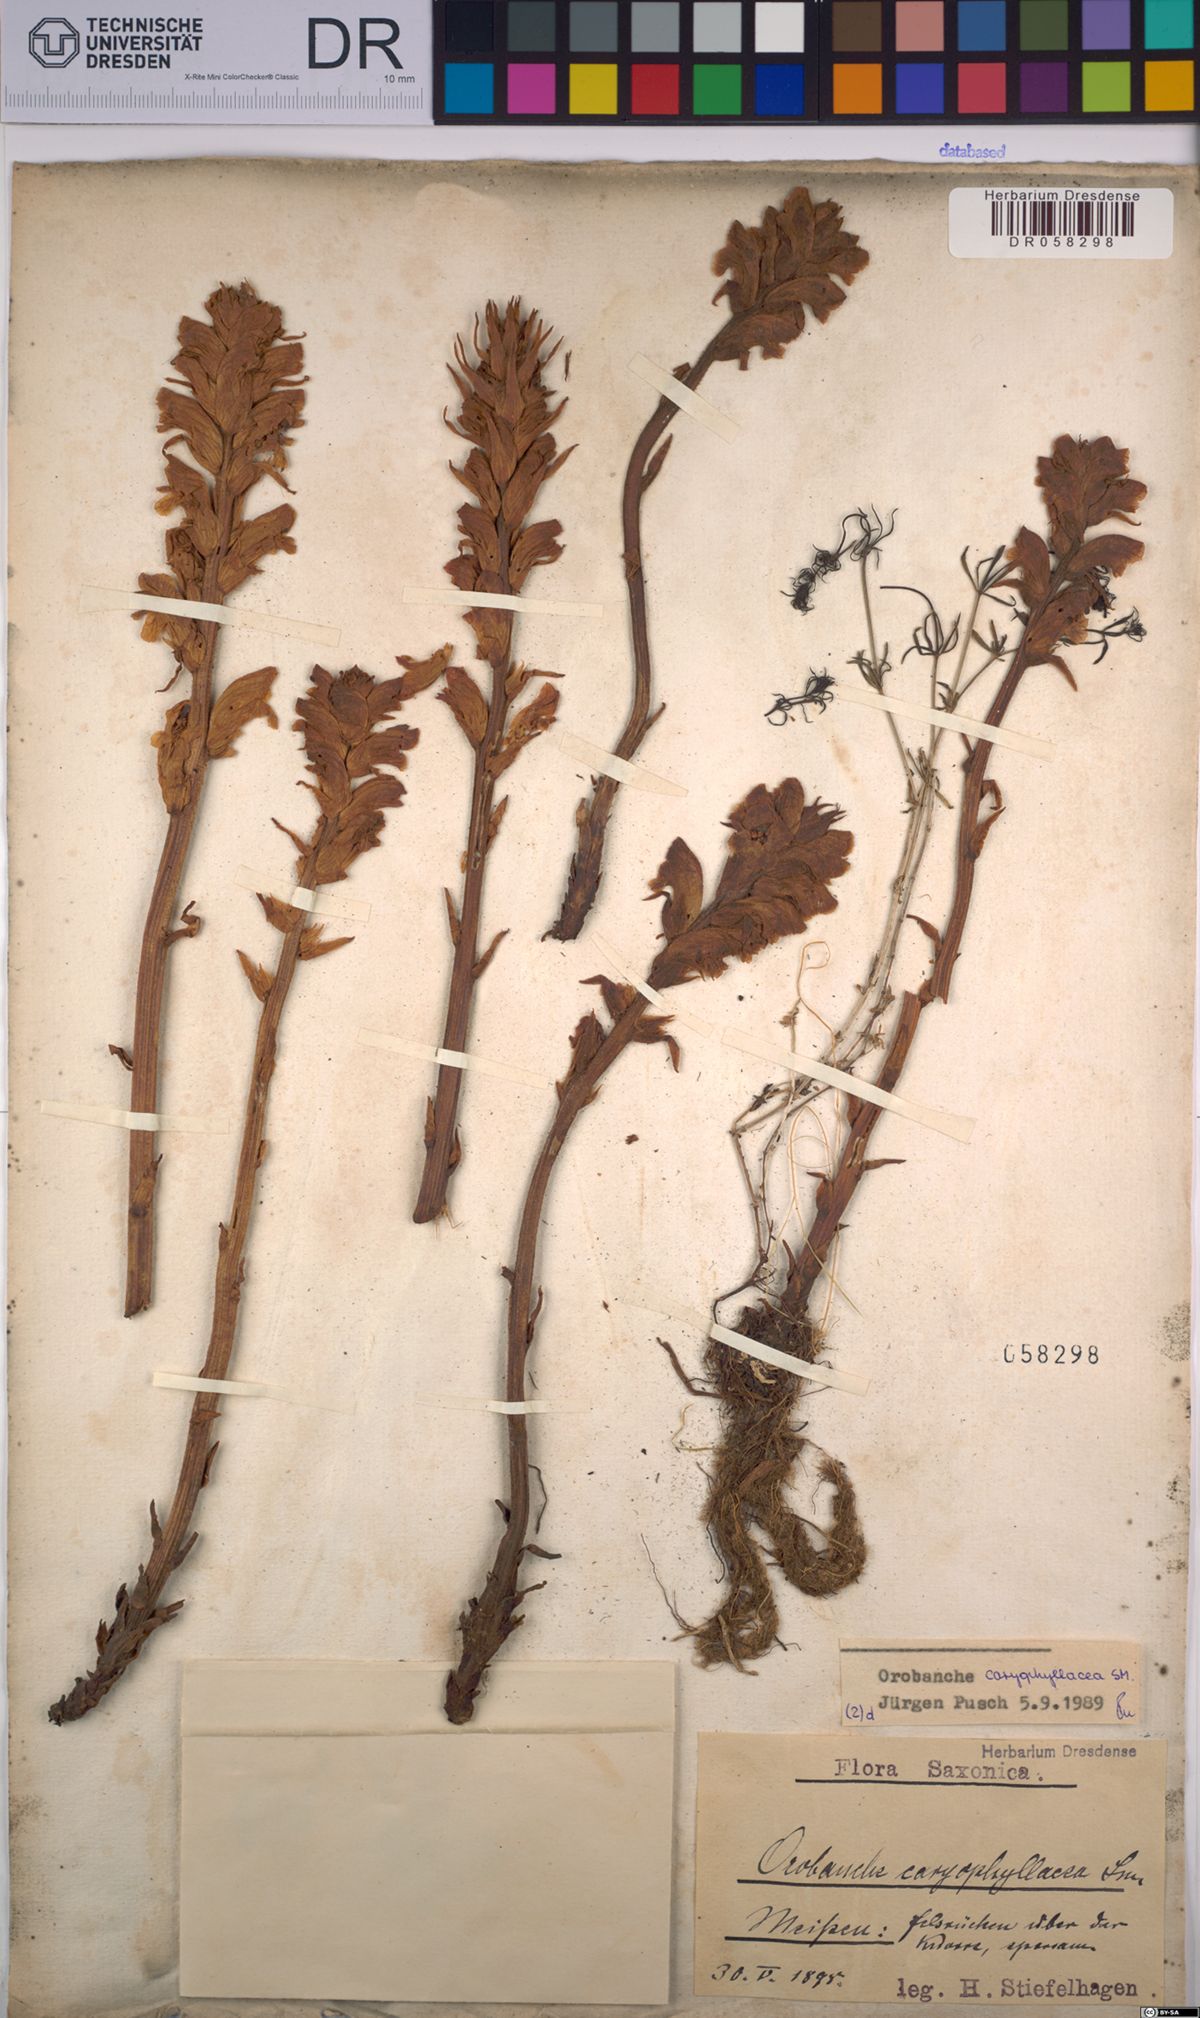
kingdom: Plantae
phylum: Tracheophyta
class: Magnoliopsida
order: Lamiales
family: Orobanchaceae
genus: Orobanche
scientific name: Orobanche caryophyllacea
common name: Bedstraw broomrape
